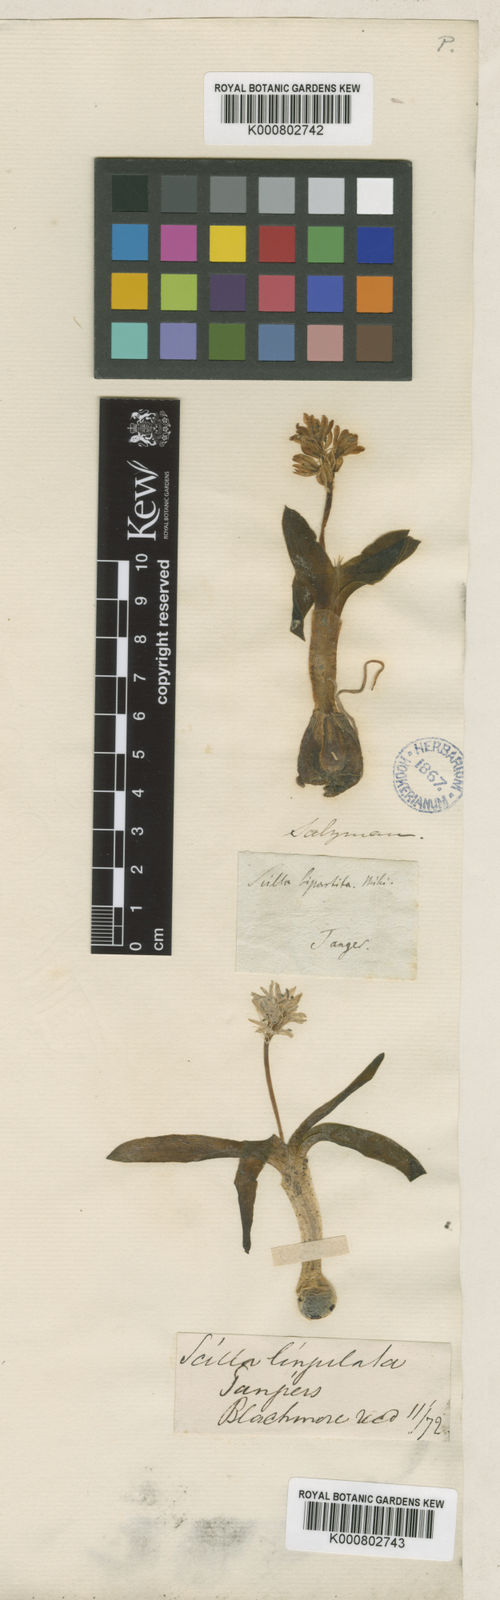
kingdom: Plantae
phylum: Tracheophyta
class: Liliopsida
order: Asparagales
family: Asparagaceae
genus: Hyacinthoides
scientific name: Hyacinthoides lingulata
